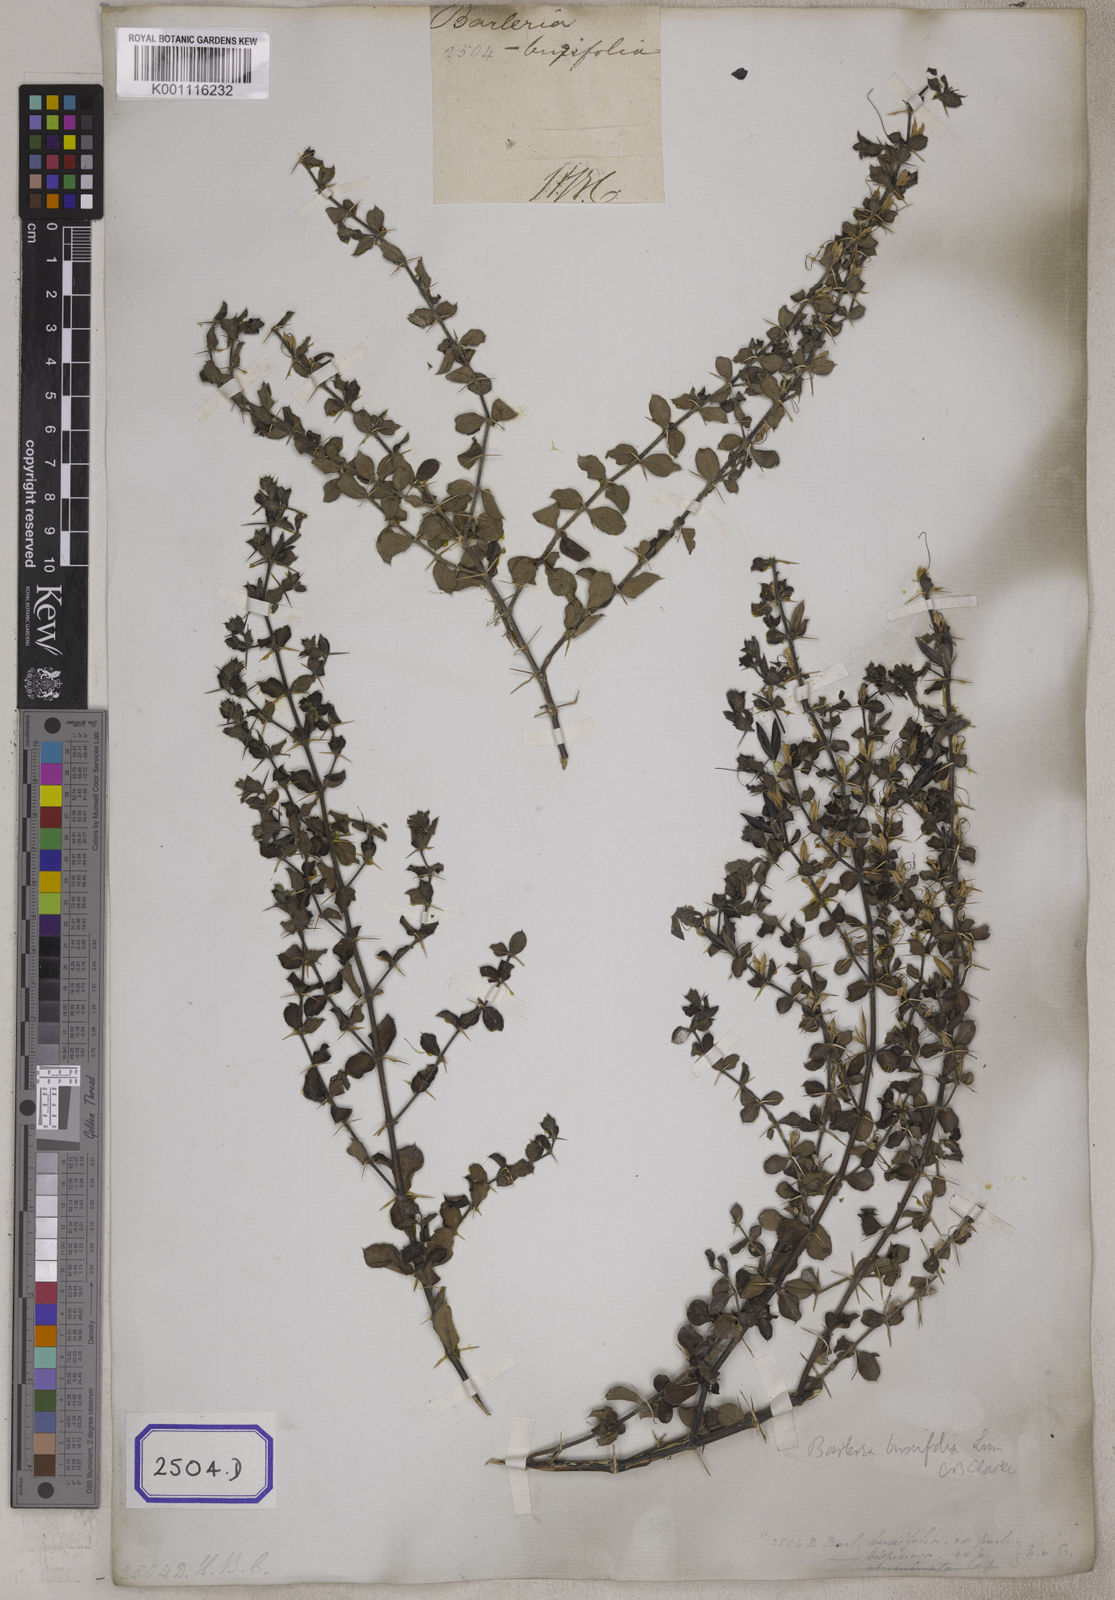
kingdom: Plantae
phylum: Tracheophyta
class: Magnoliopsida
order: Lamiales
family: Acanthaceae
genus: Barleria
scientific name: Barleria
